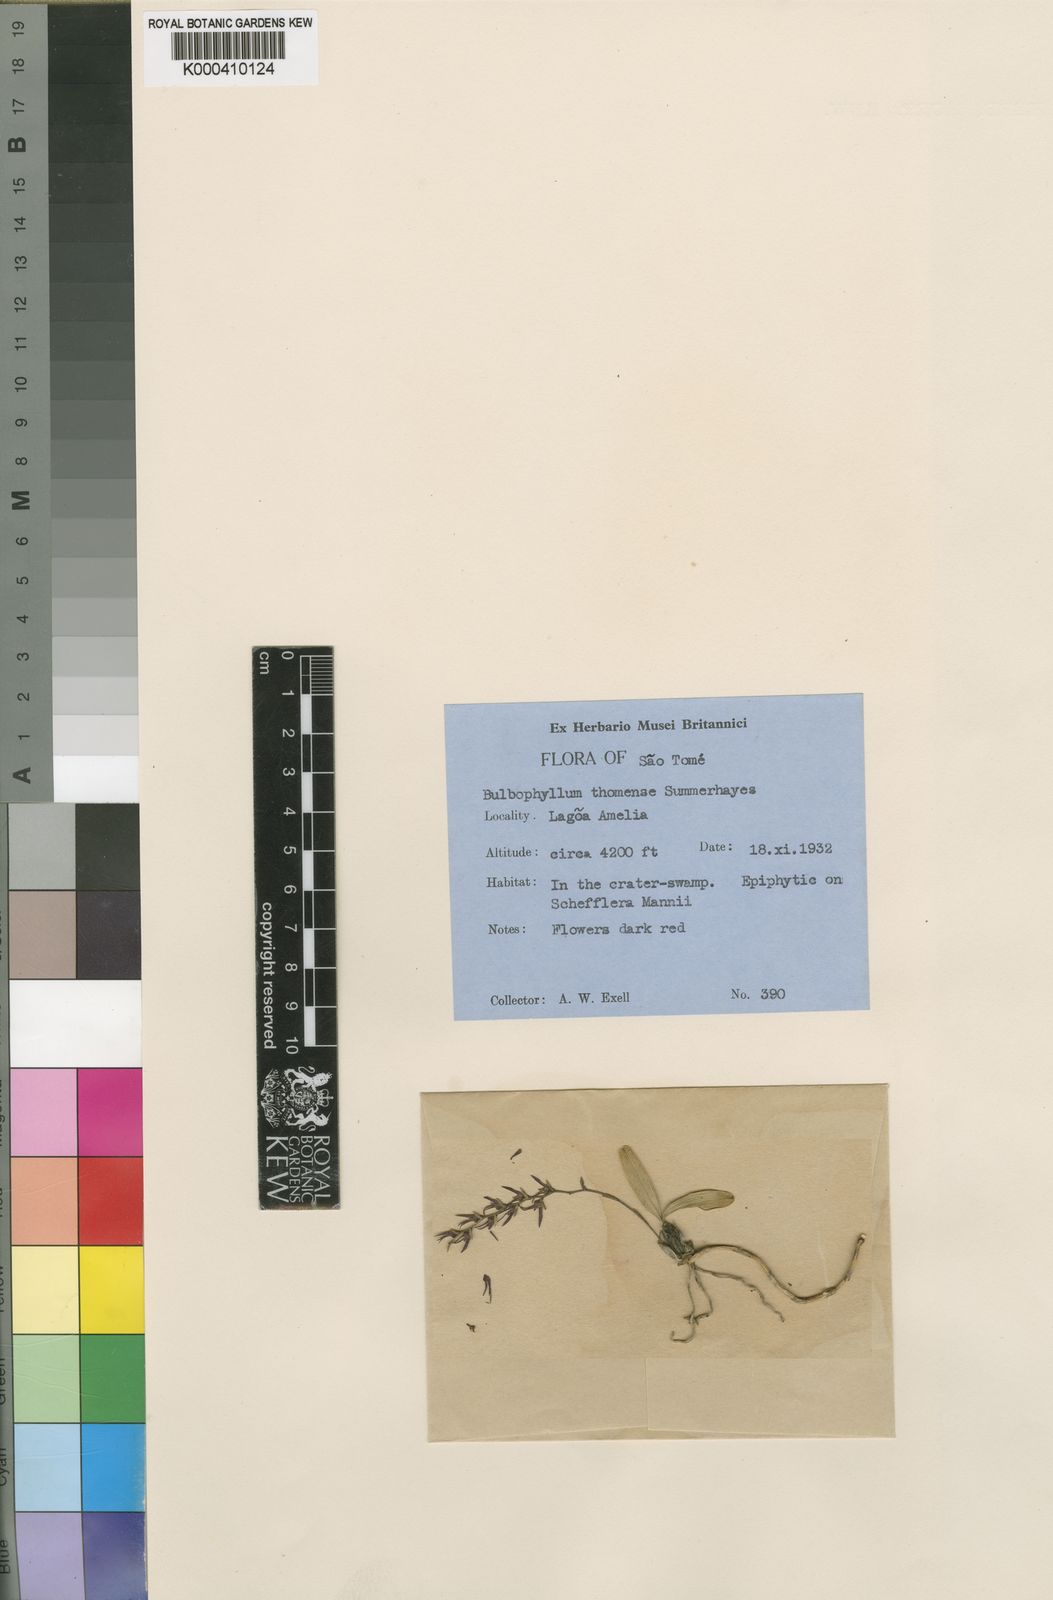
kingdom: Plantae
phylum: Tracheophyta
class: Liliopsida
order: Asparagales
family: Orchidaceae
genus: Bulbophyllum
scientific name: Bulbophyllum cochleatum
